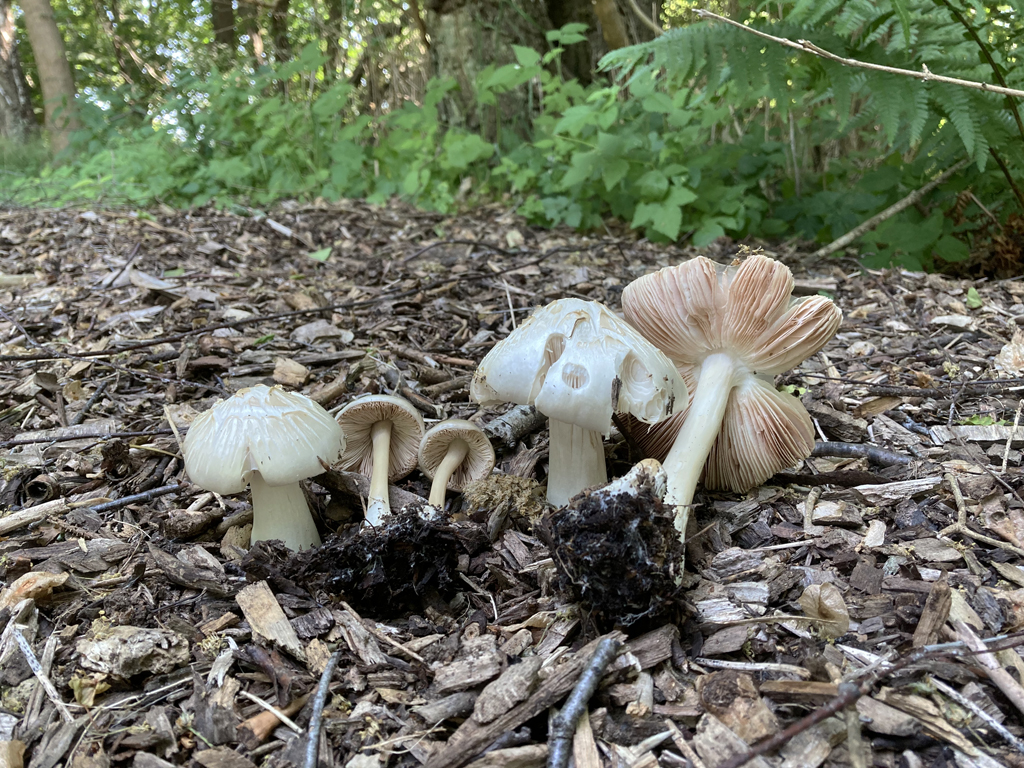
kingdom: Fungi
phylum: Basidiomycota
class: Agaricomycetes
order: Agaricales
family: Pluteaceae
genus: Volvopluteus
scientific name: Volvopluteus gloiocephalus
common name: høj posesvamp
